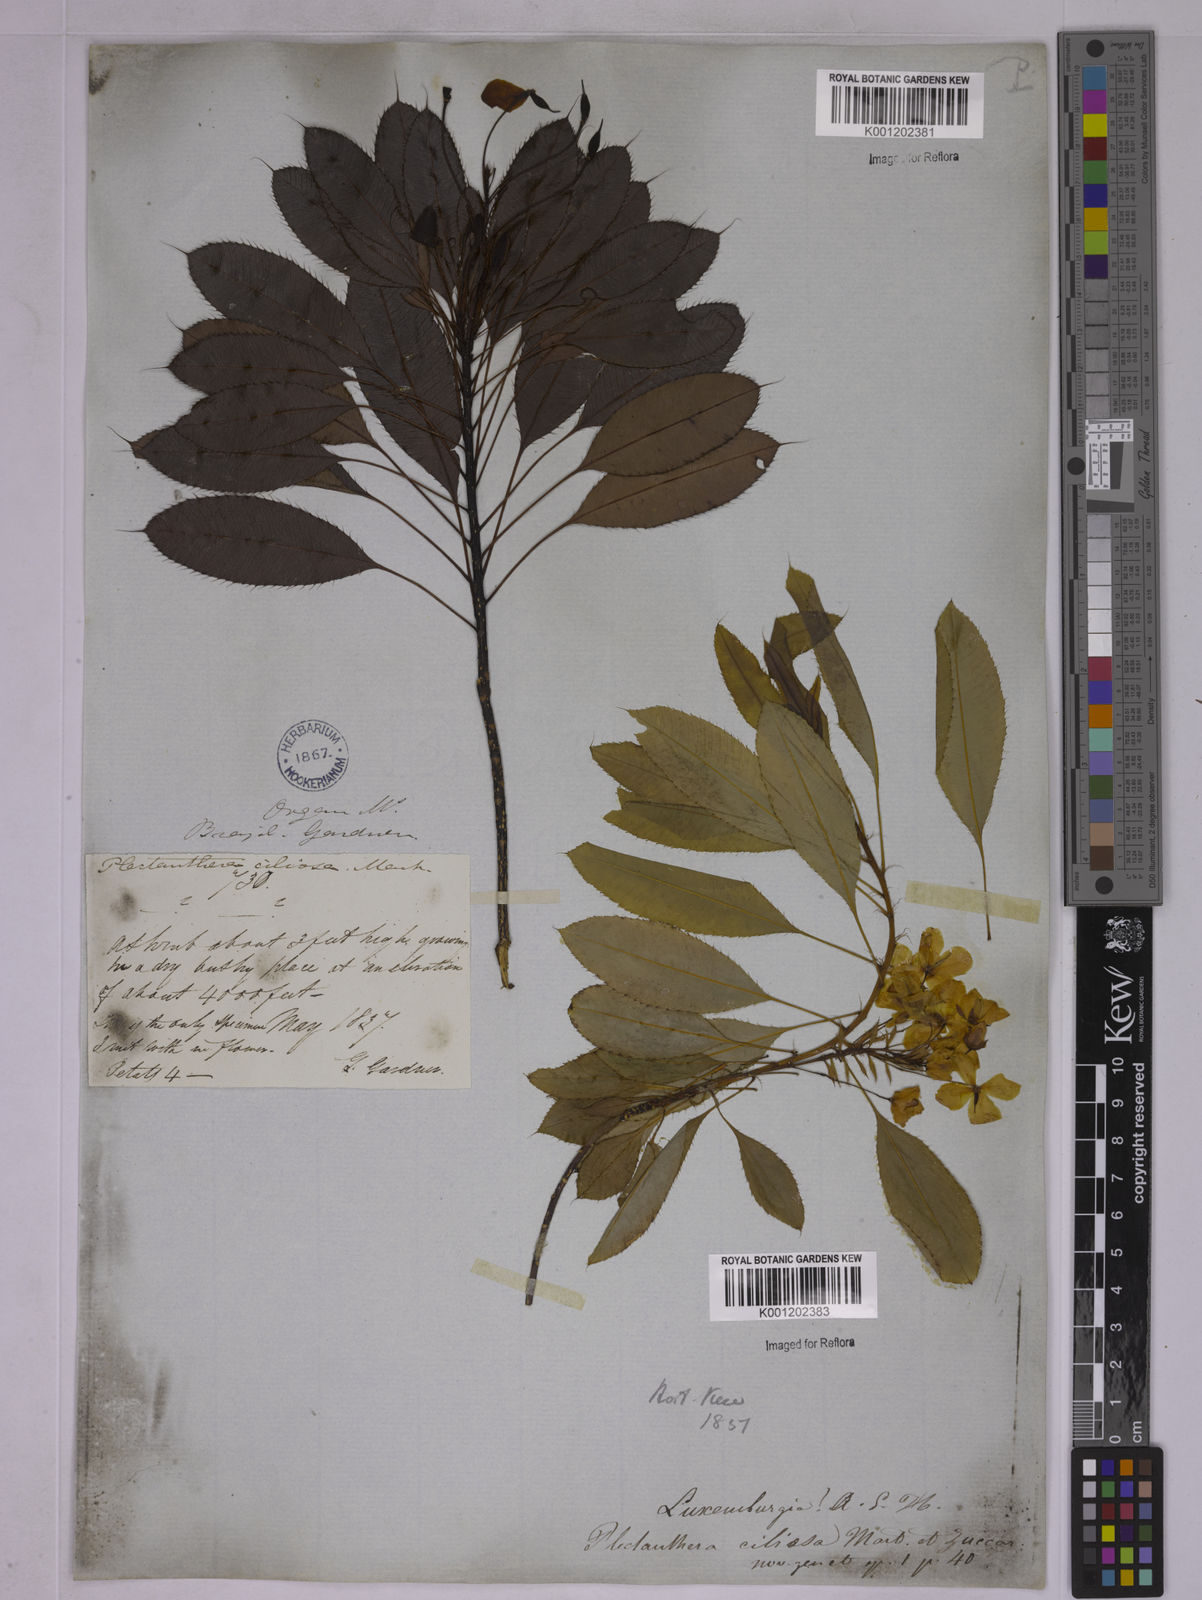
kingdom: Plantae
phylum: Tracheophyta
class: Magnoliopsida
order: Malpighiales
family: Ochnaceae
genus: Luxemburgia
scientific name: Luxemburgia ciliosa
